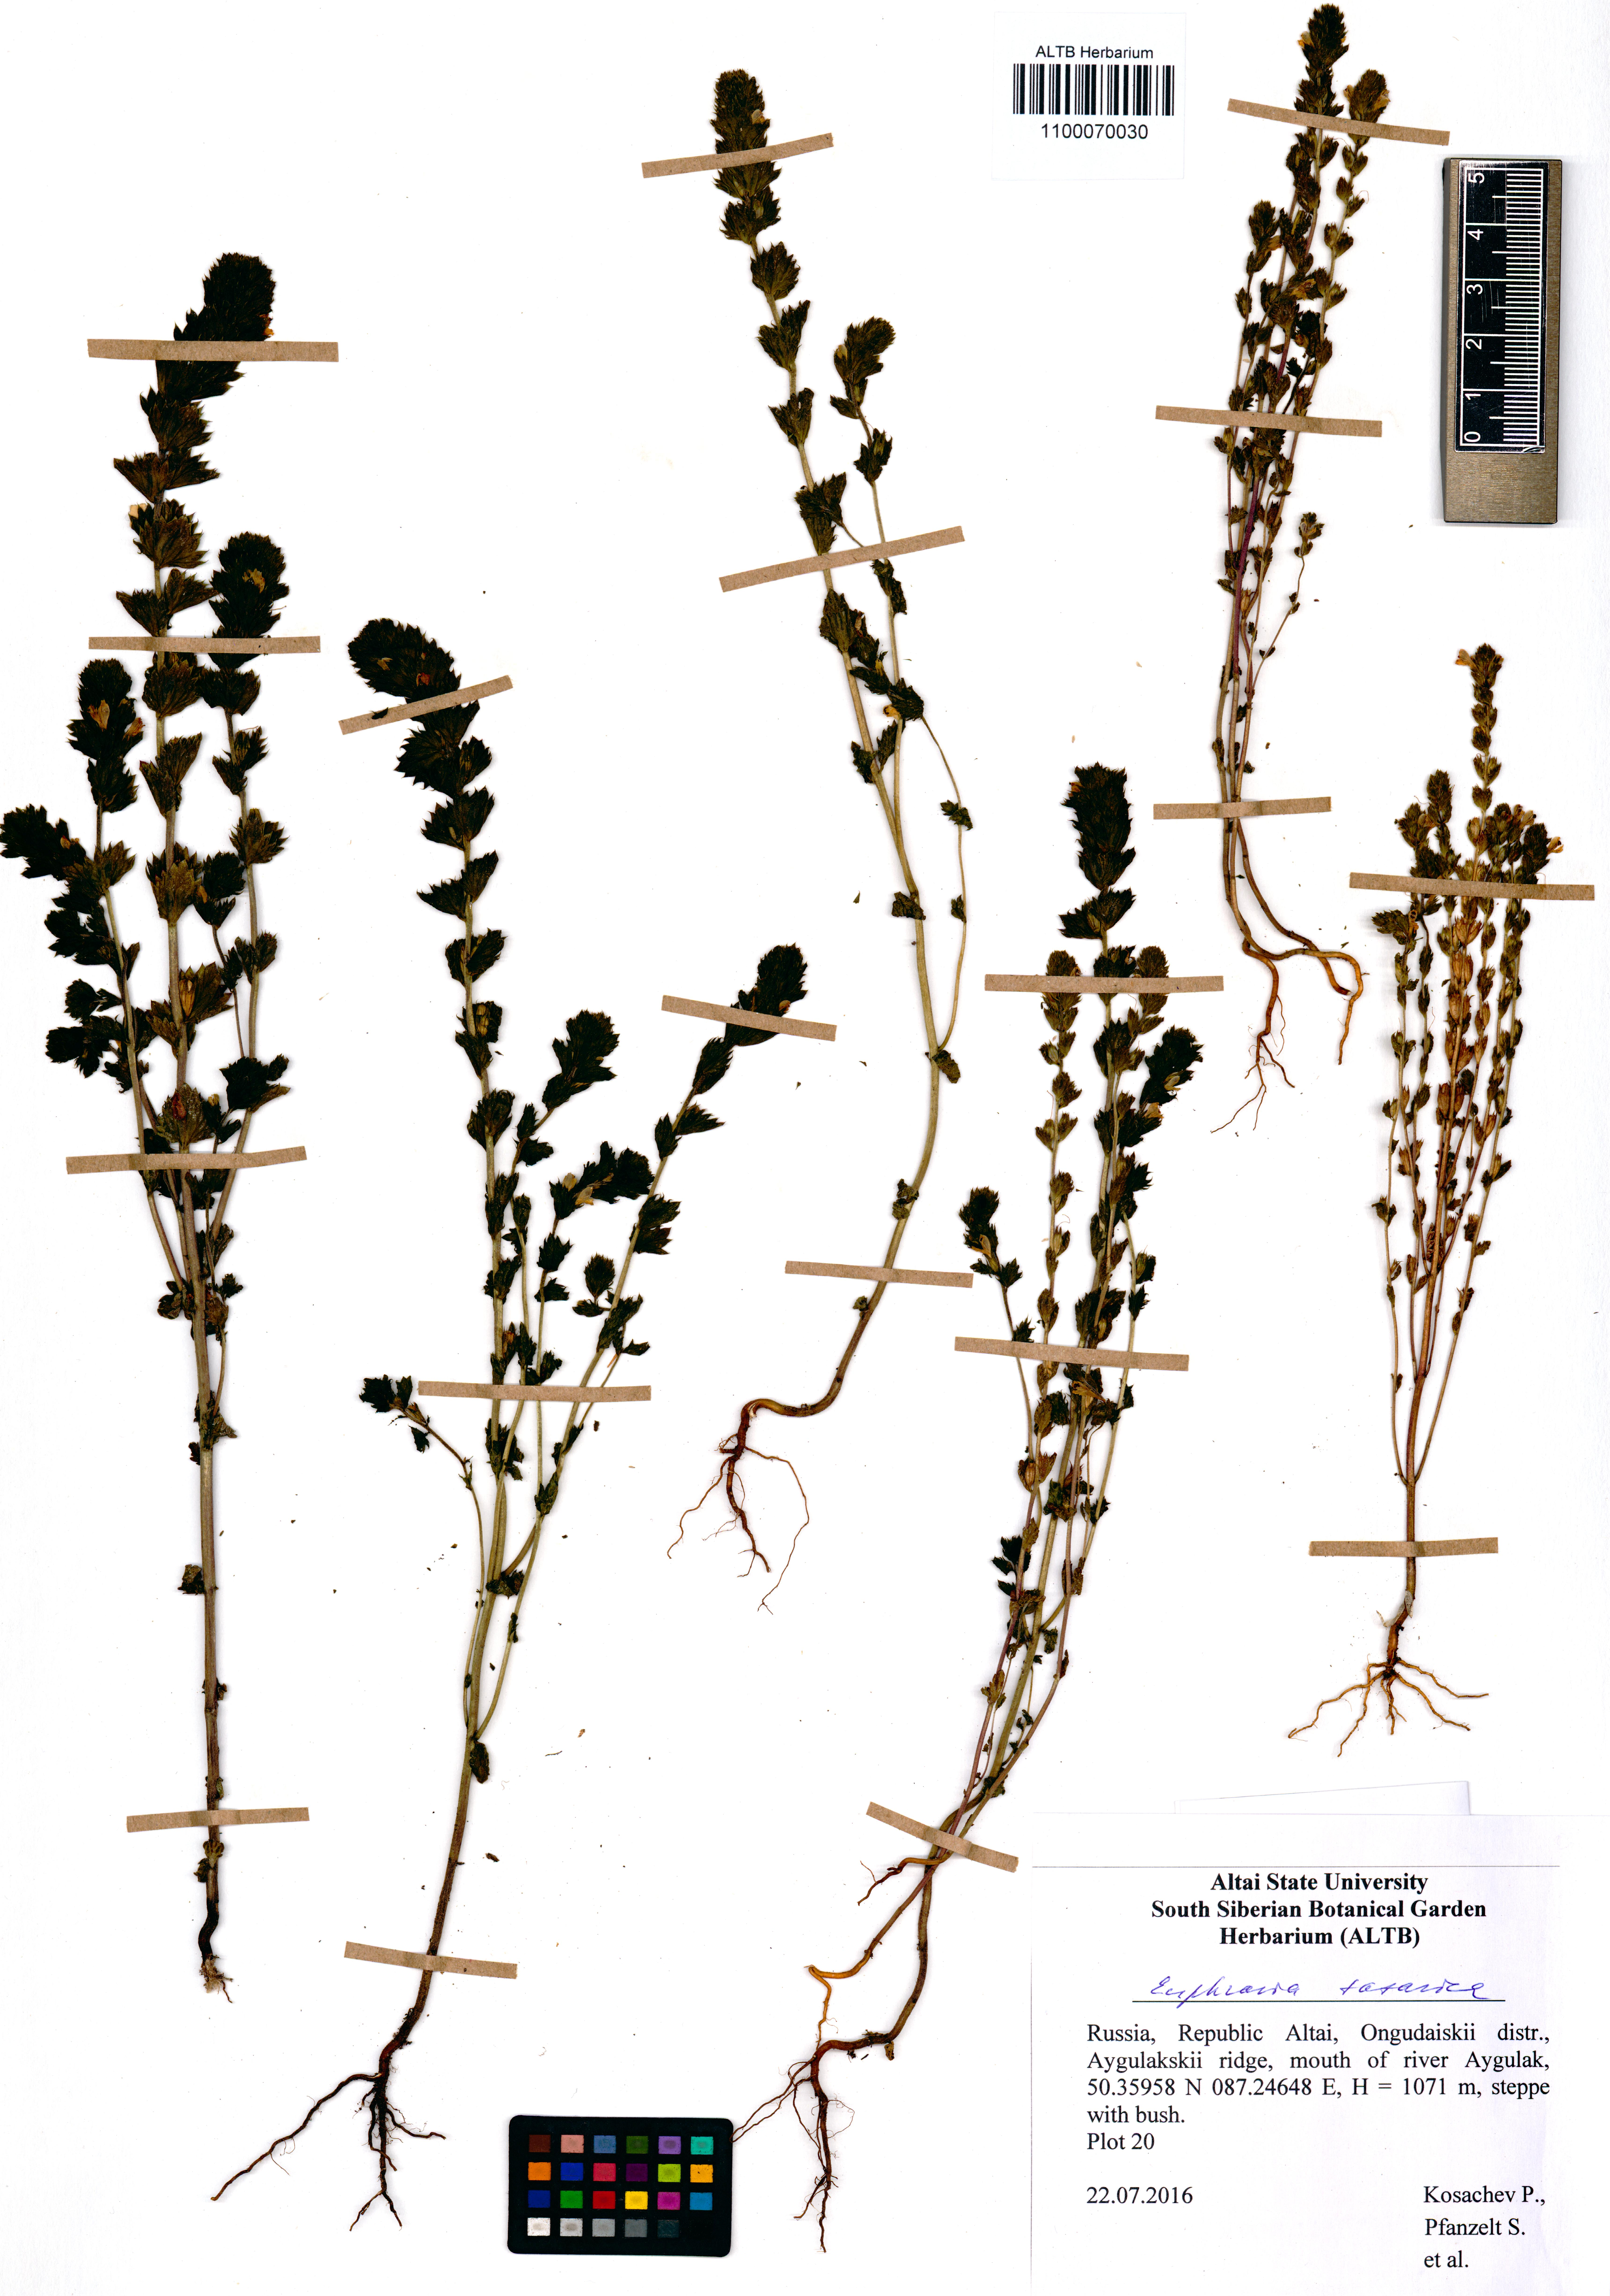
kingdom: Plantae
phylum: Tracheophyta
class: Magnoliopsida
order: Lamiales
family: Orobanchaceae
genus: Euphrasia
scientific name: Euphrasia pectinata
